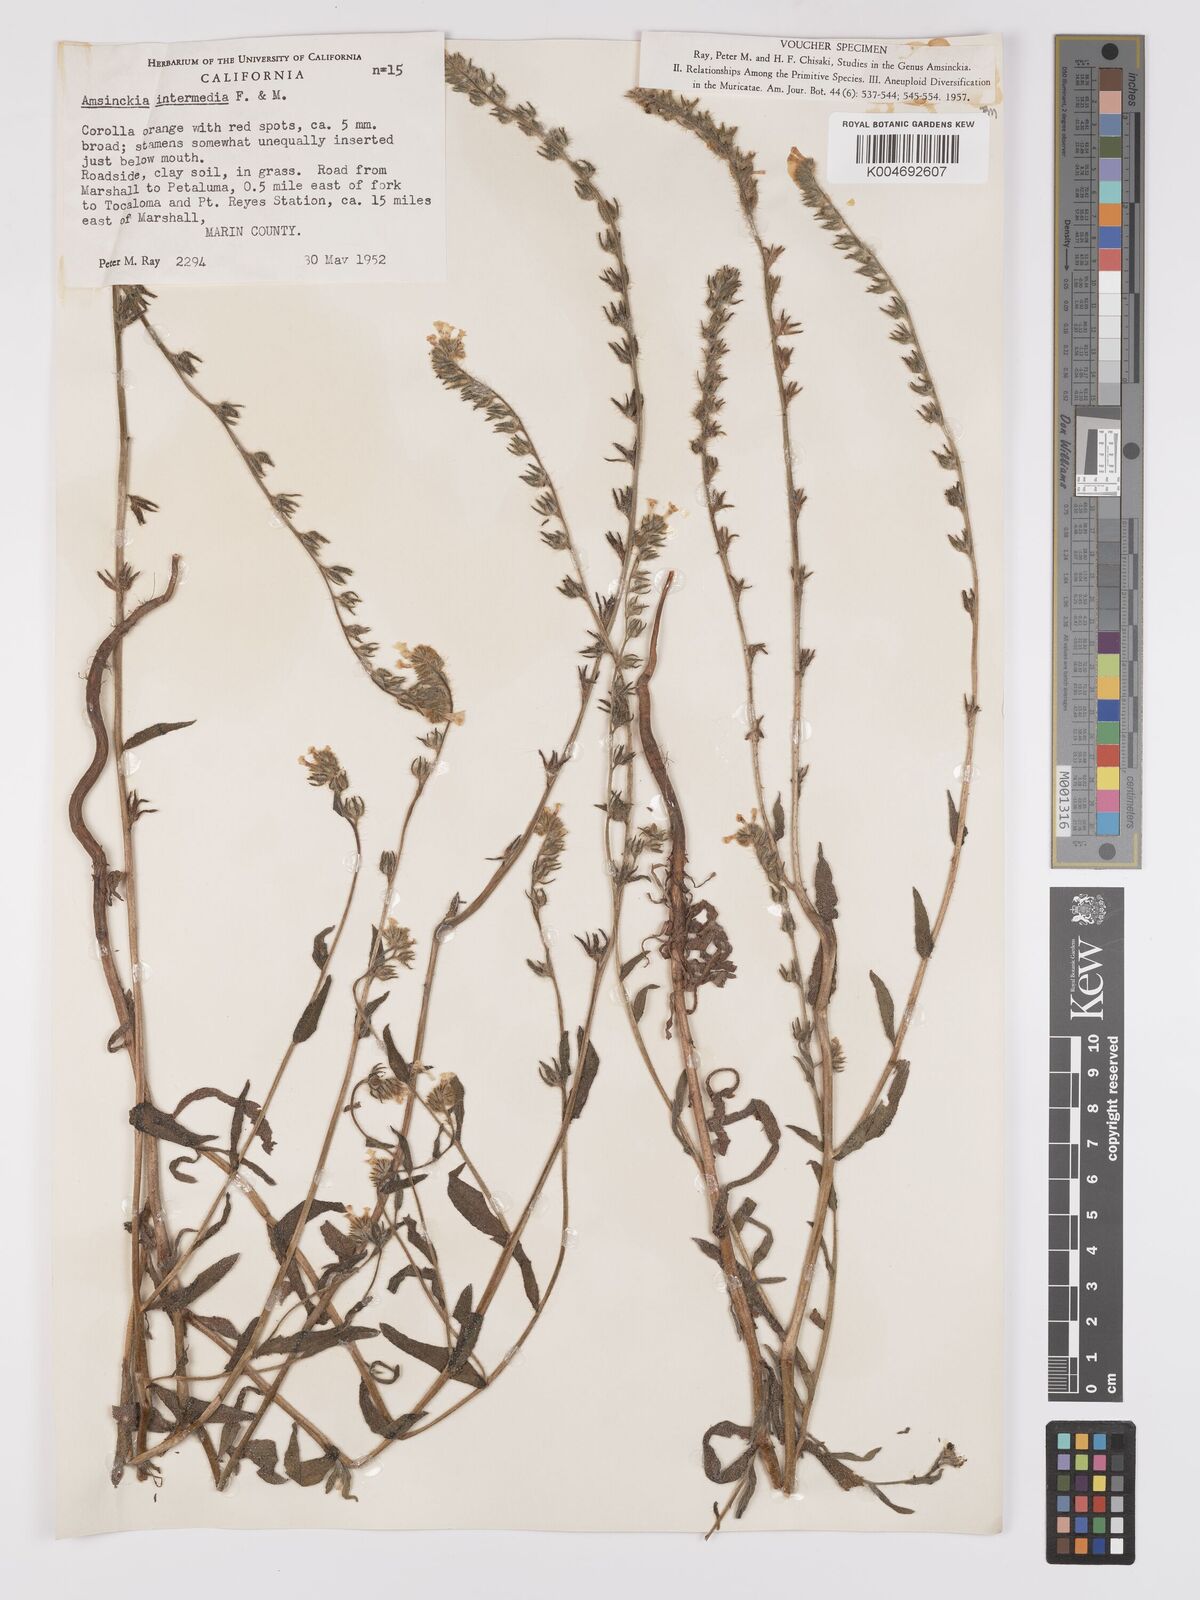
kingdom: Plantae
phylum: Tracheophyta
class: Magnoliopsida
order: Boraginales
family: Boraginaceae
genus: Amsinckia
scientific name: Amsinckia menziesii
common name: Menzies' fiddleneck
